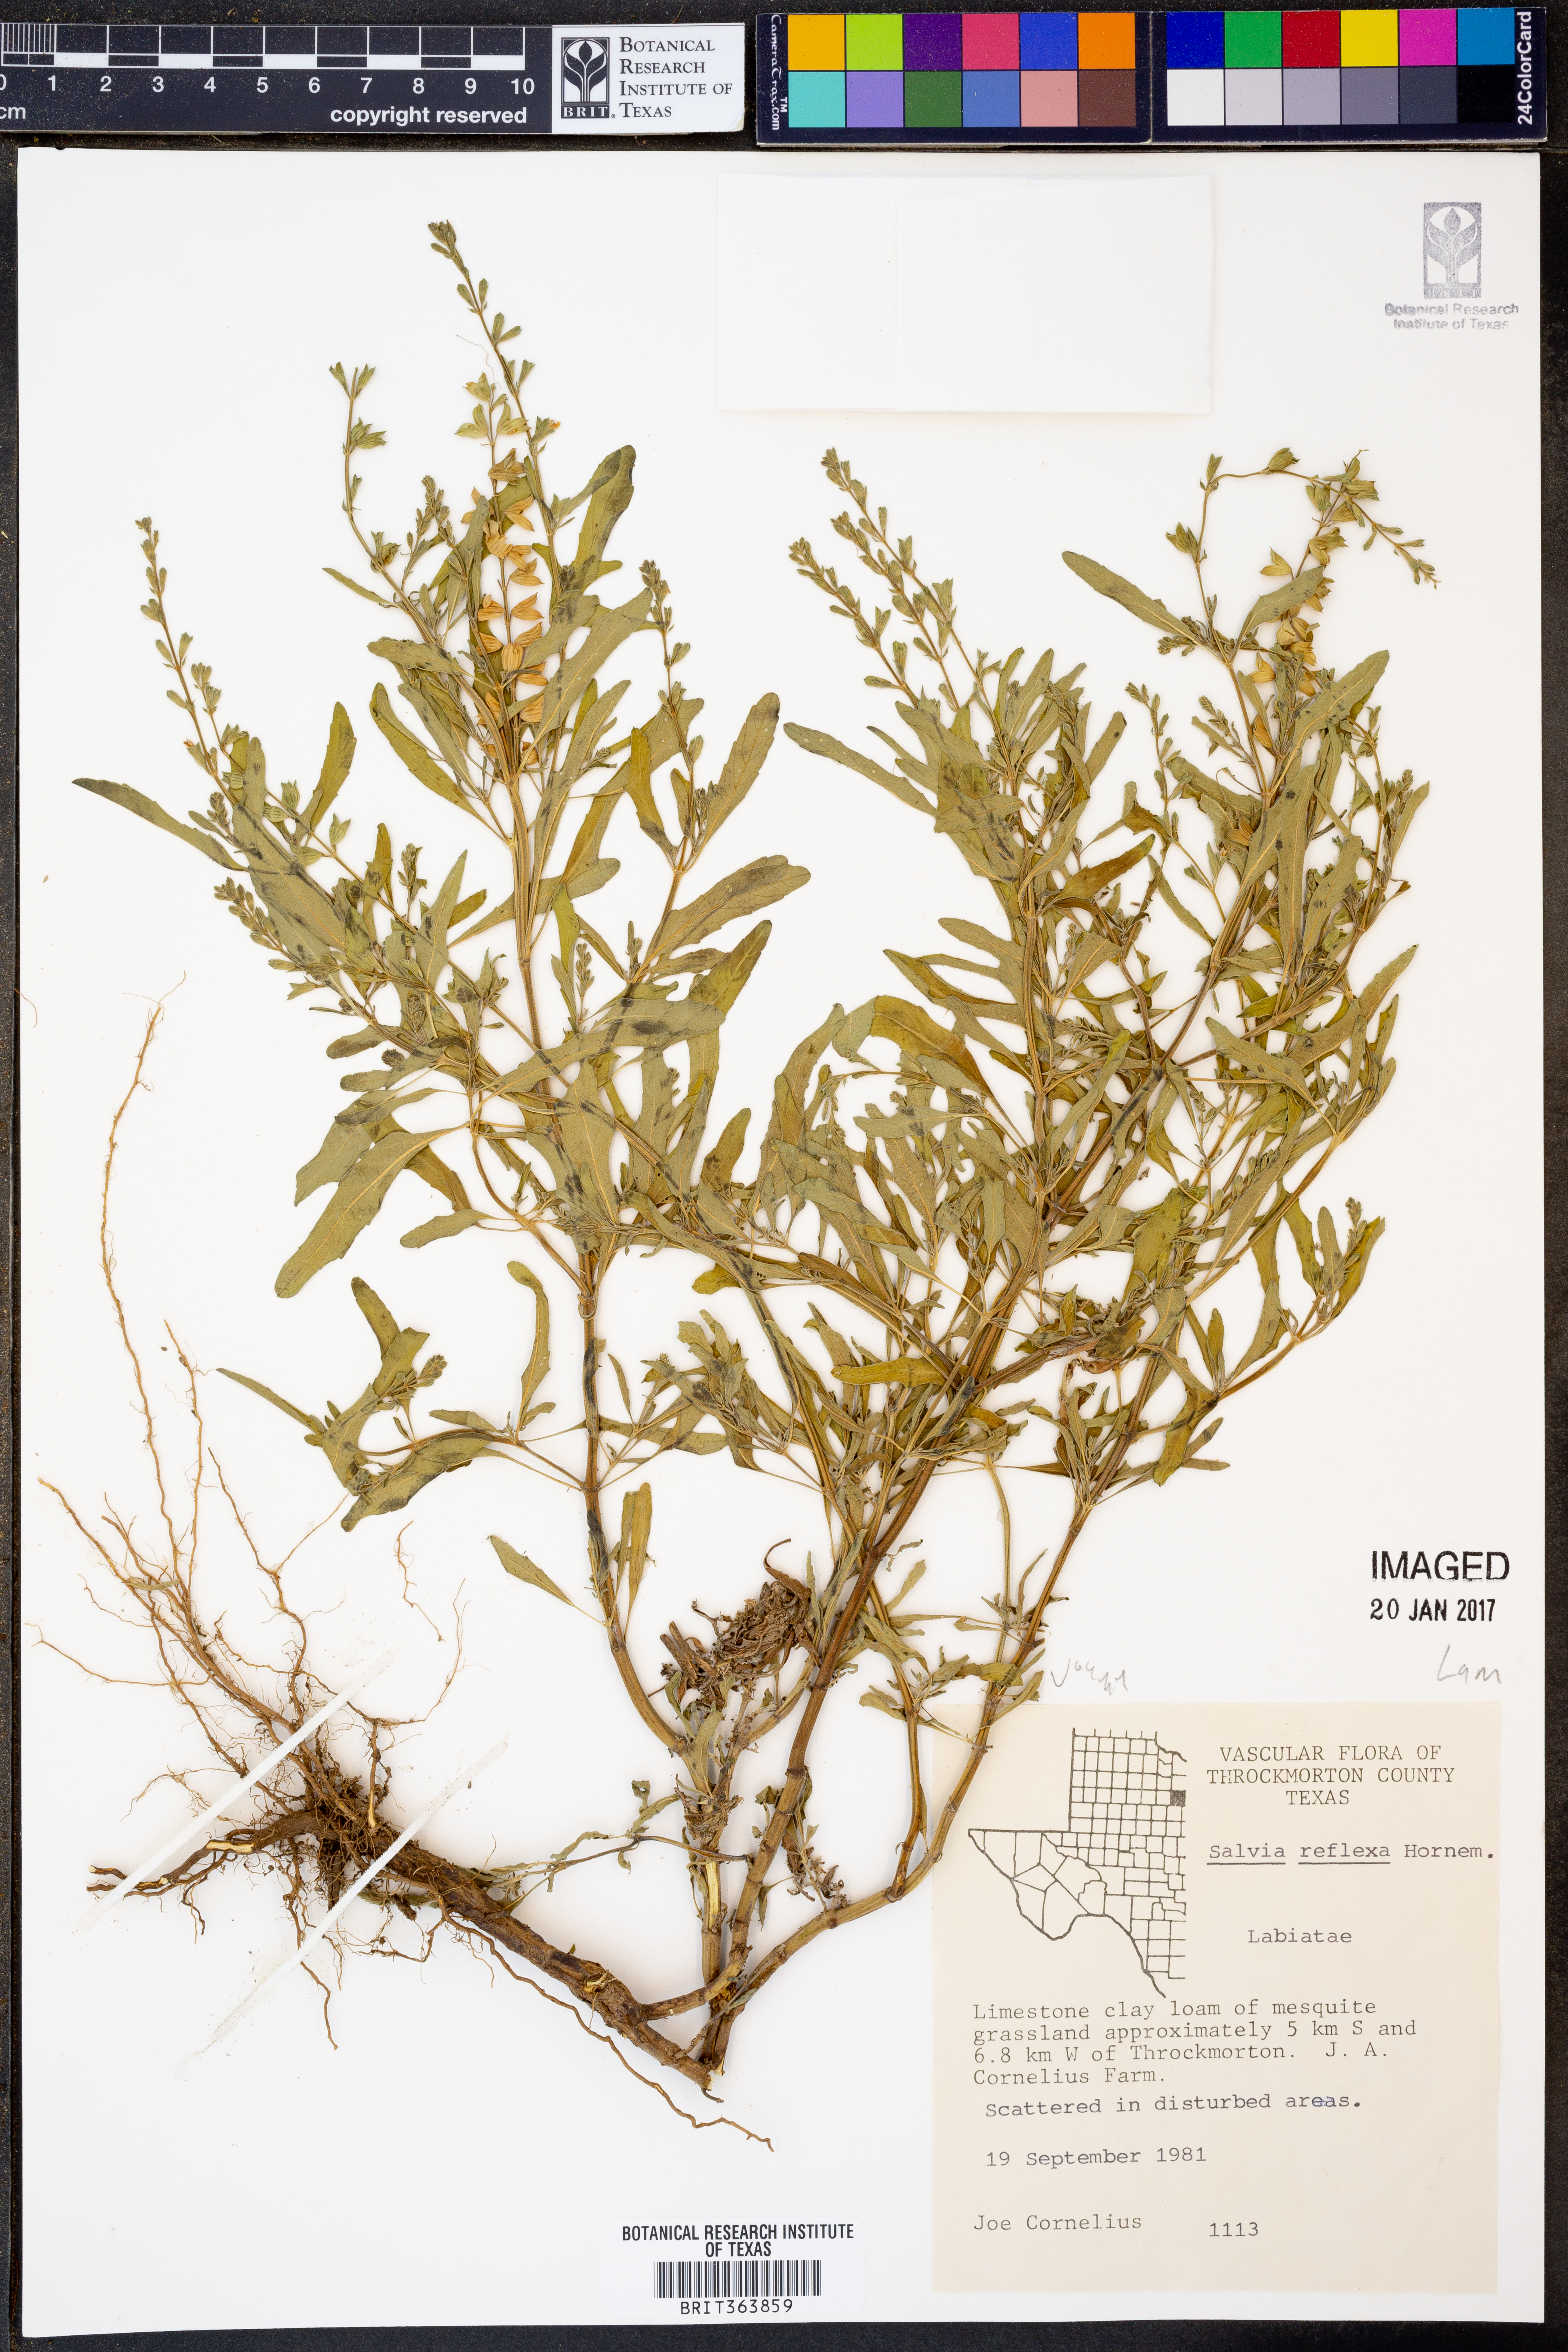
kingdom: Plantae
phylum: Tracheophyta
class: Magnoliopsida
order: Lamiales
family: Lamiaceae
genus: Salvia
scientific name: Salvia reflexa
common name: Mintweed
